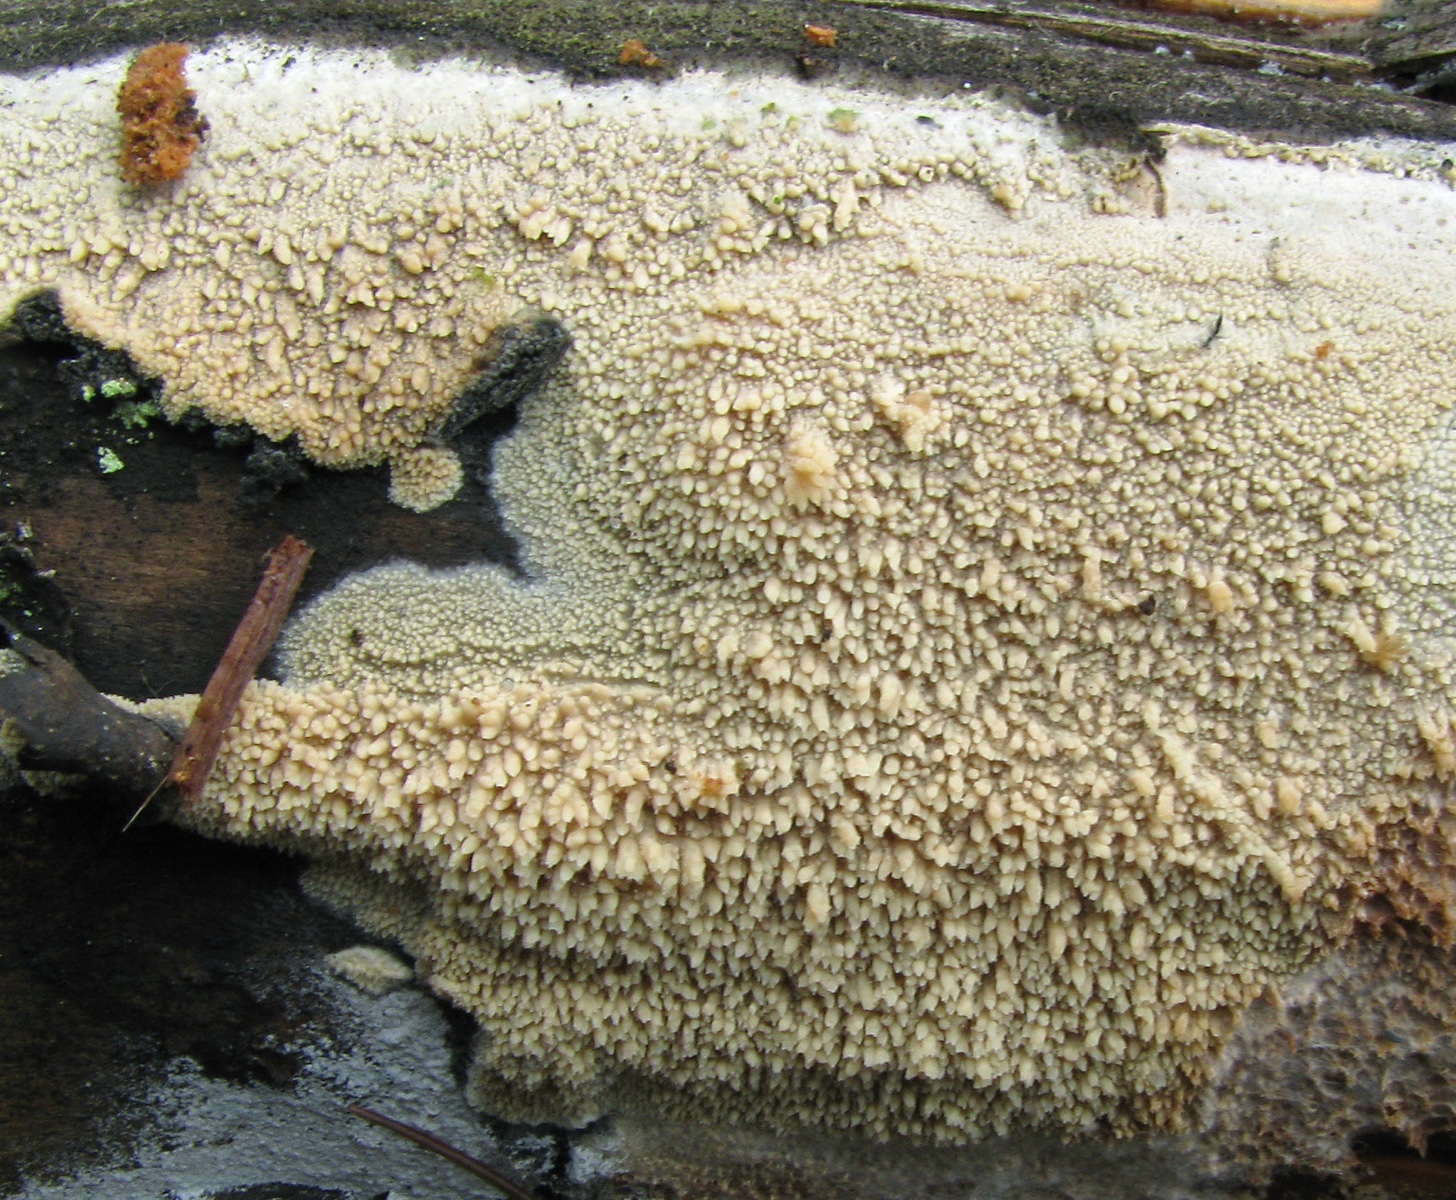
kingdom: Fungi
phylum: Basidiomycota
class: Agaricomycetes
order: Polyporales
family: Dacryobolaceae
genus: Dacryobolus
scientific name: Dacryobolus sudans
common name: vortet vulkanskorpe
